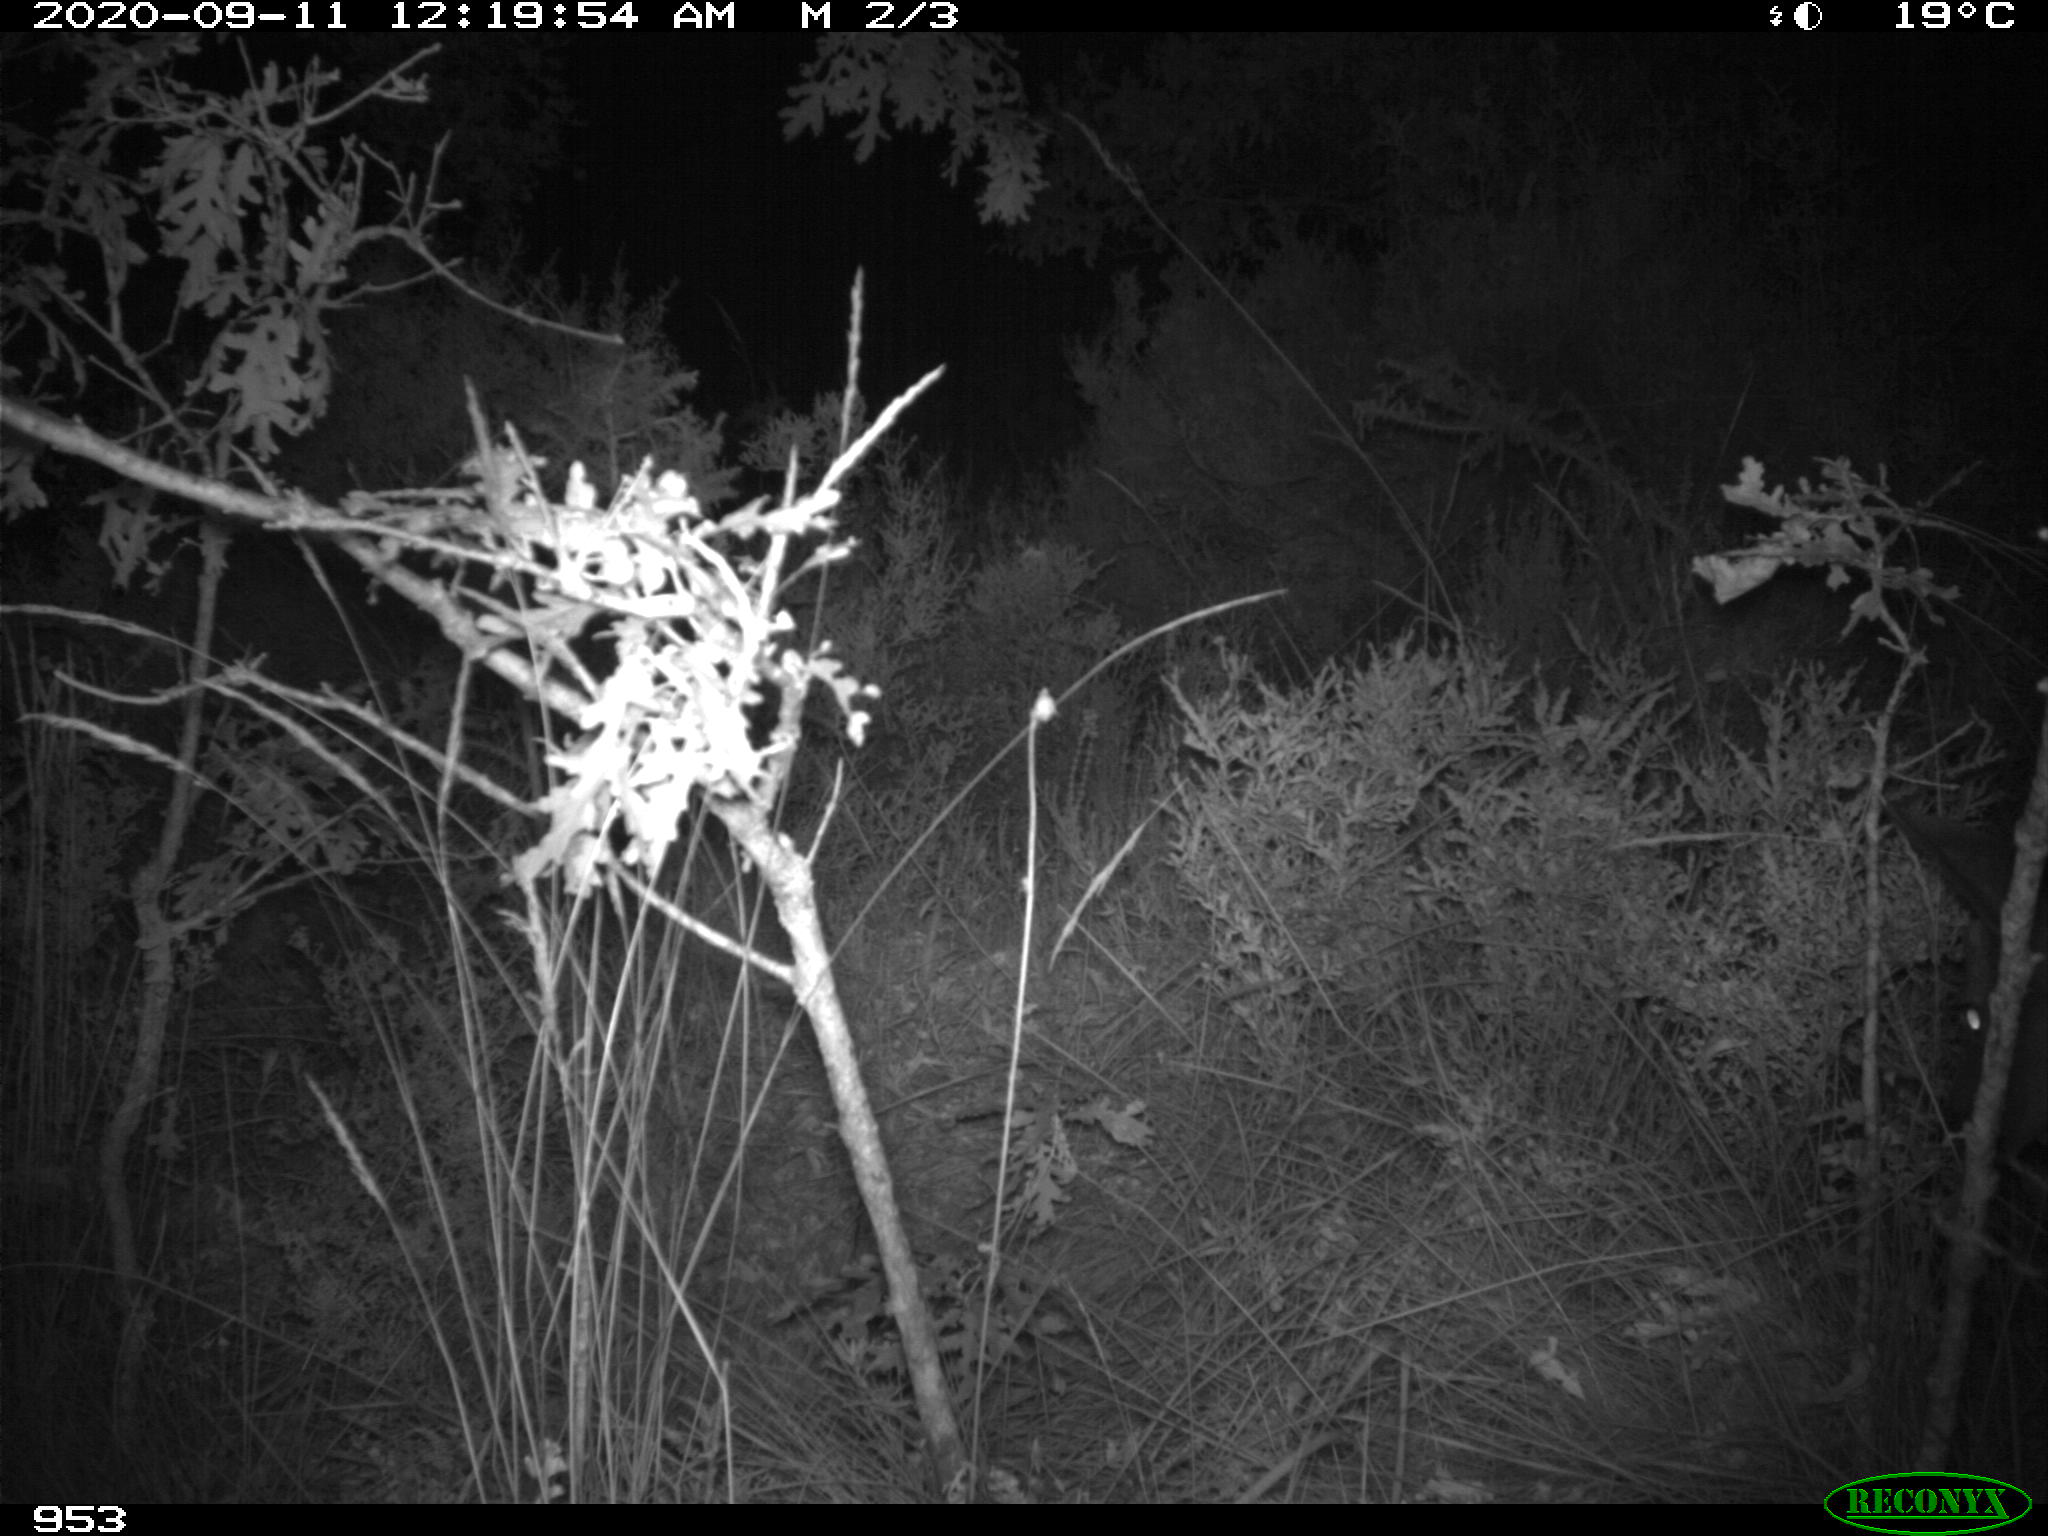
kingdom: Animalia
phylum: Chordata
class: Mammalia
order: Artiodactyla
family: Cervidae
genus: Capreolus
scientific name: Capreolus capreolus
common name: Western roe deer
